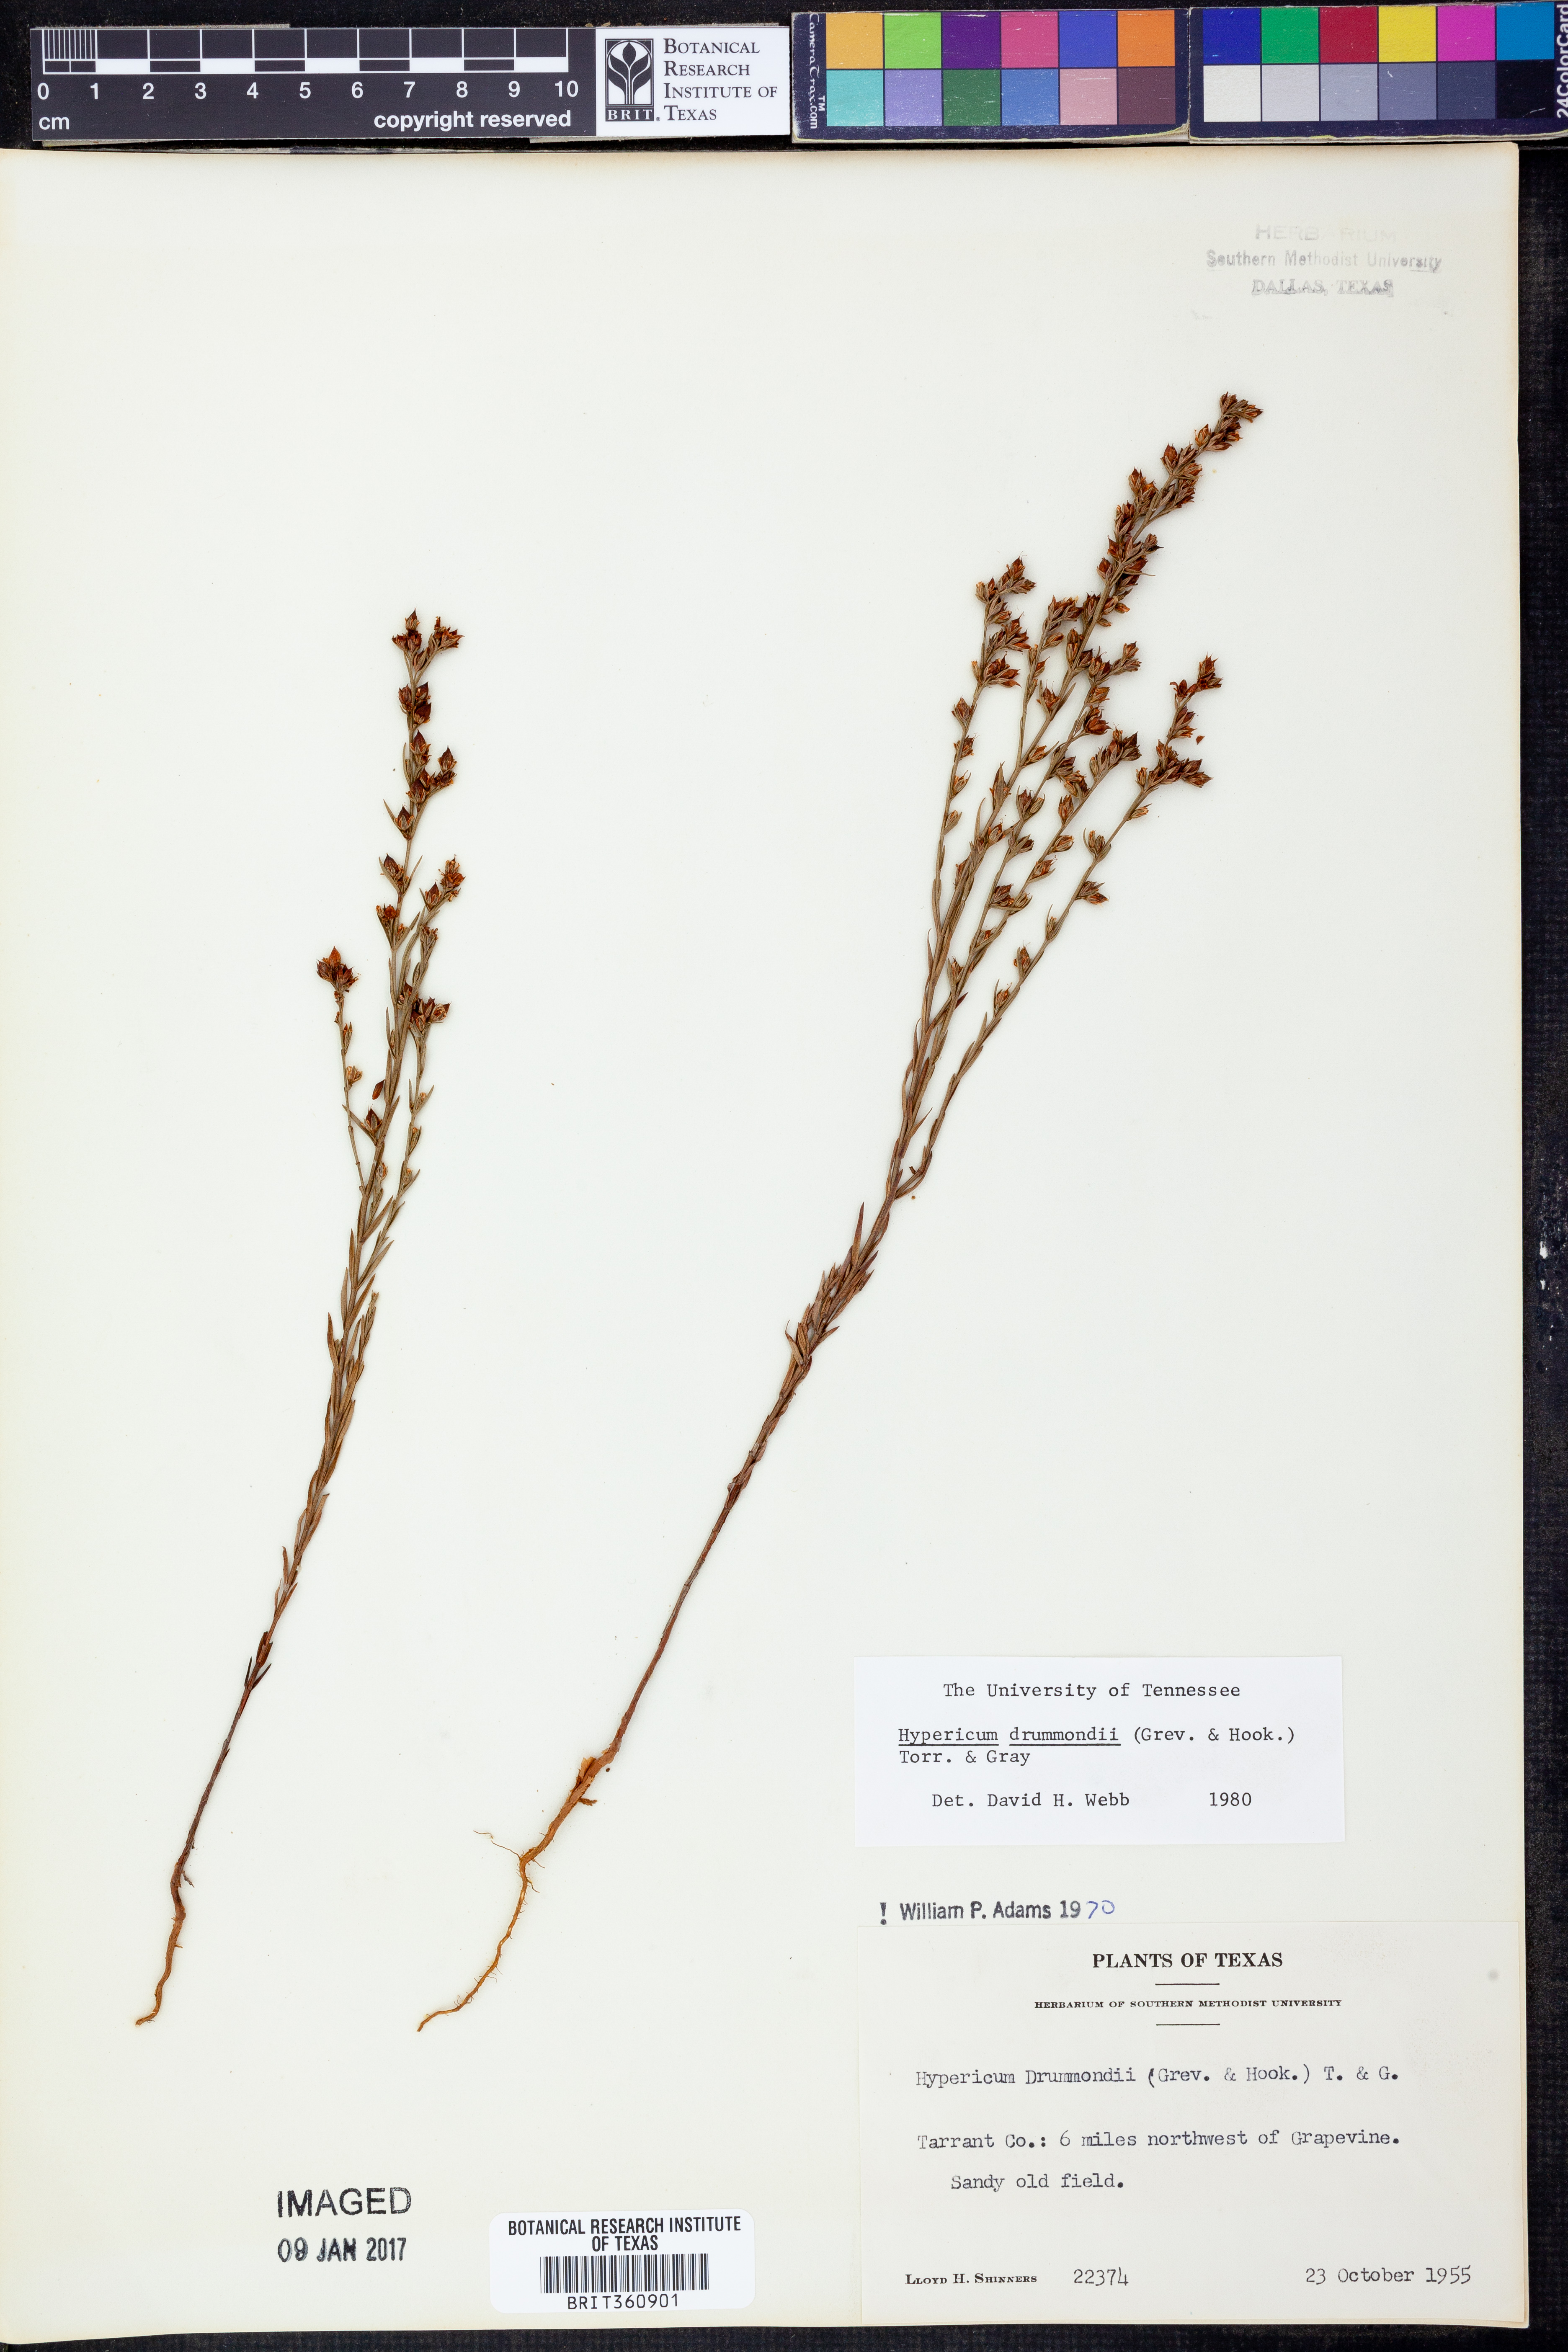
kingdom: Plantae
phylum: Tracheophyta
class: Magnoliopsida
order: Malpighiales
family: Hypericaceae
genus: Hypericum
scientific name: Hypericum drummondii
